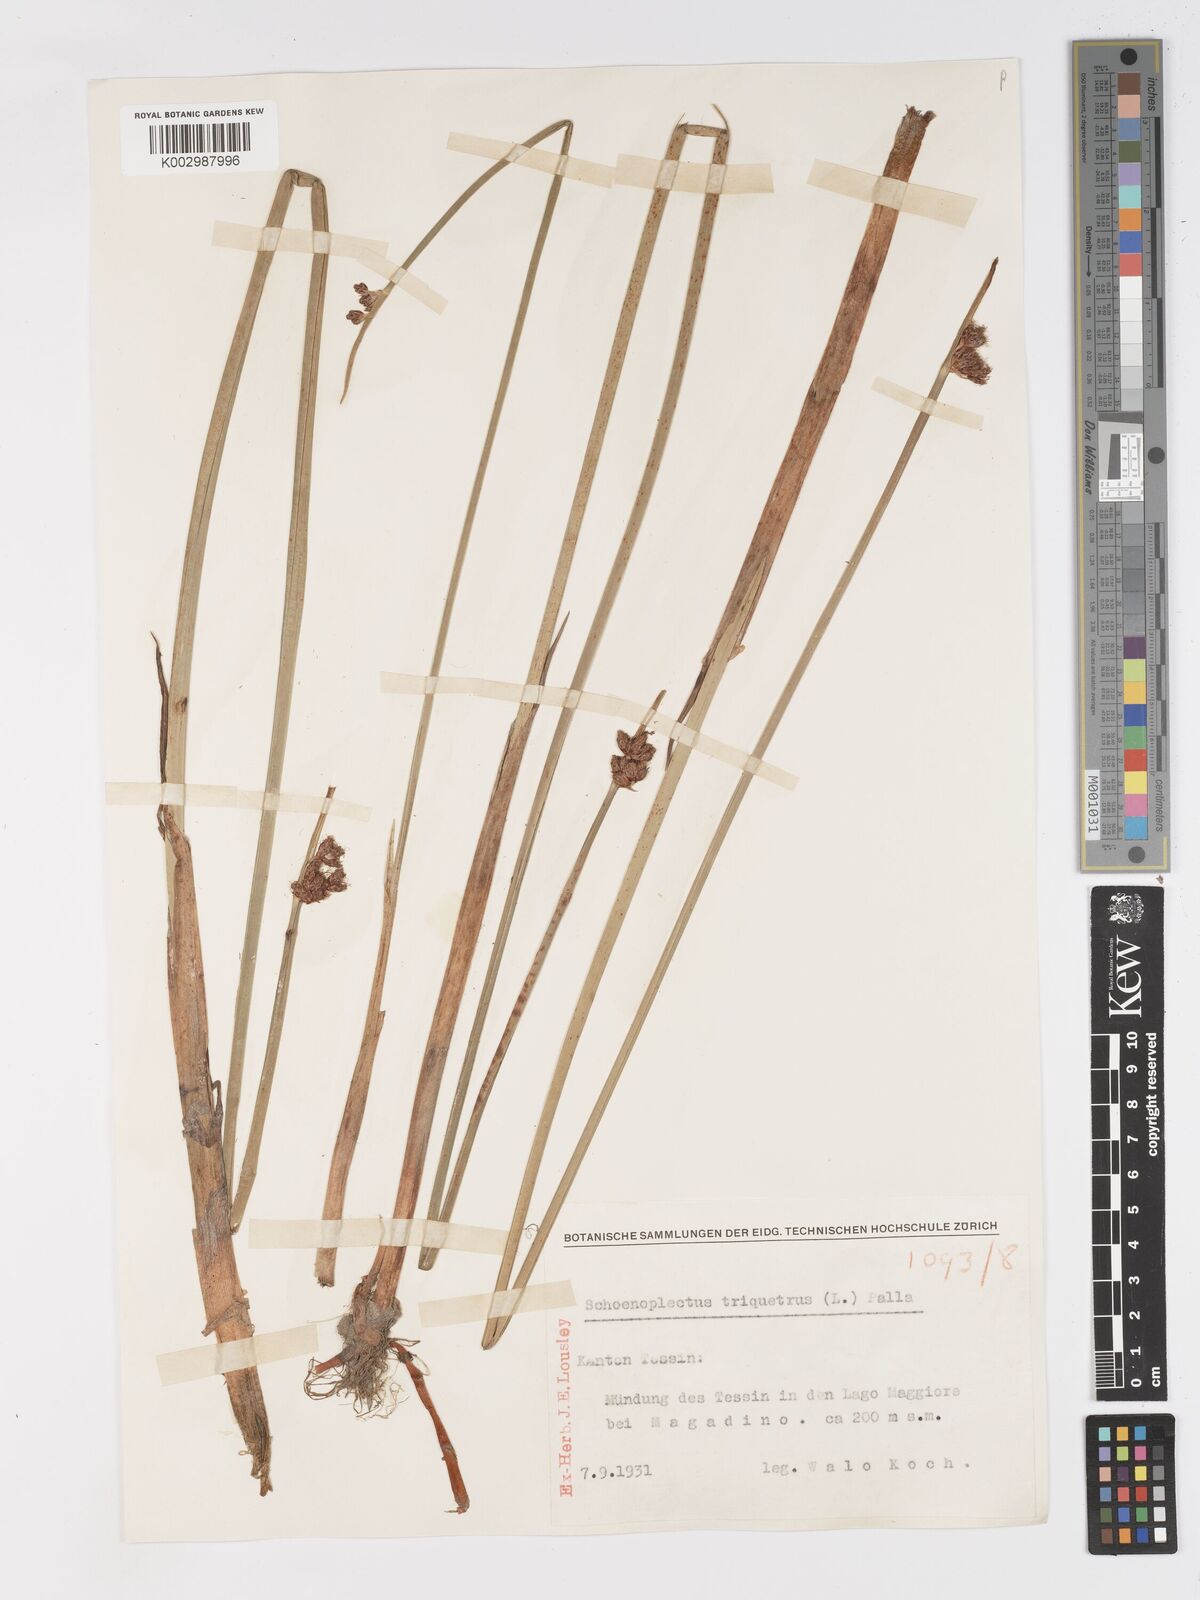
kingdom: Plantae
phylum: Tracheophyta
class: Liliopsida
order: Poales
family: Cyperaceae
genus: Schoenoplectus
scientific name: Schoenoplectus triqueter
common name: Triangular club-rush
